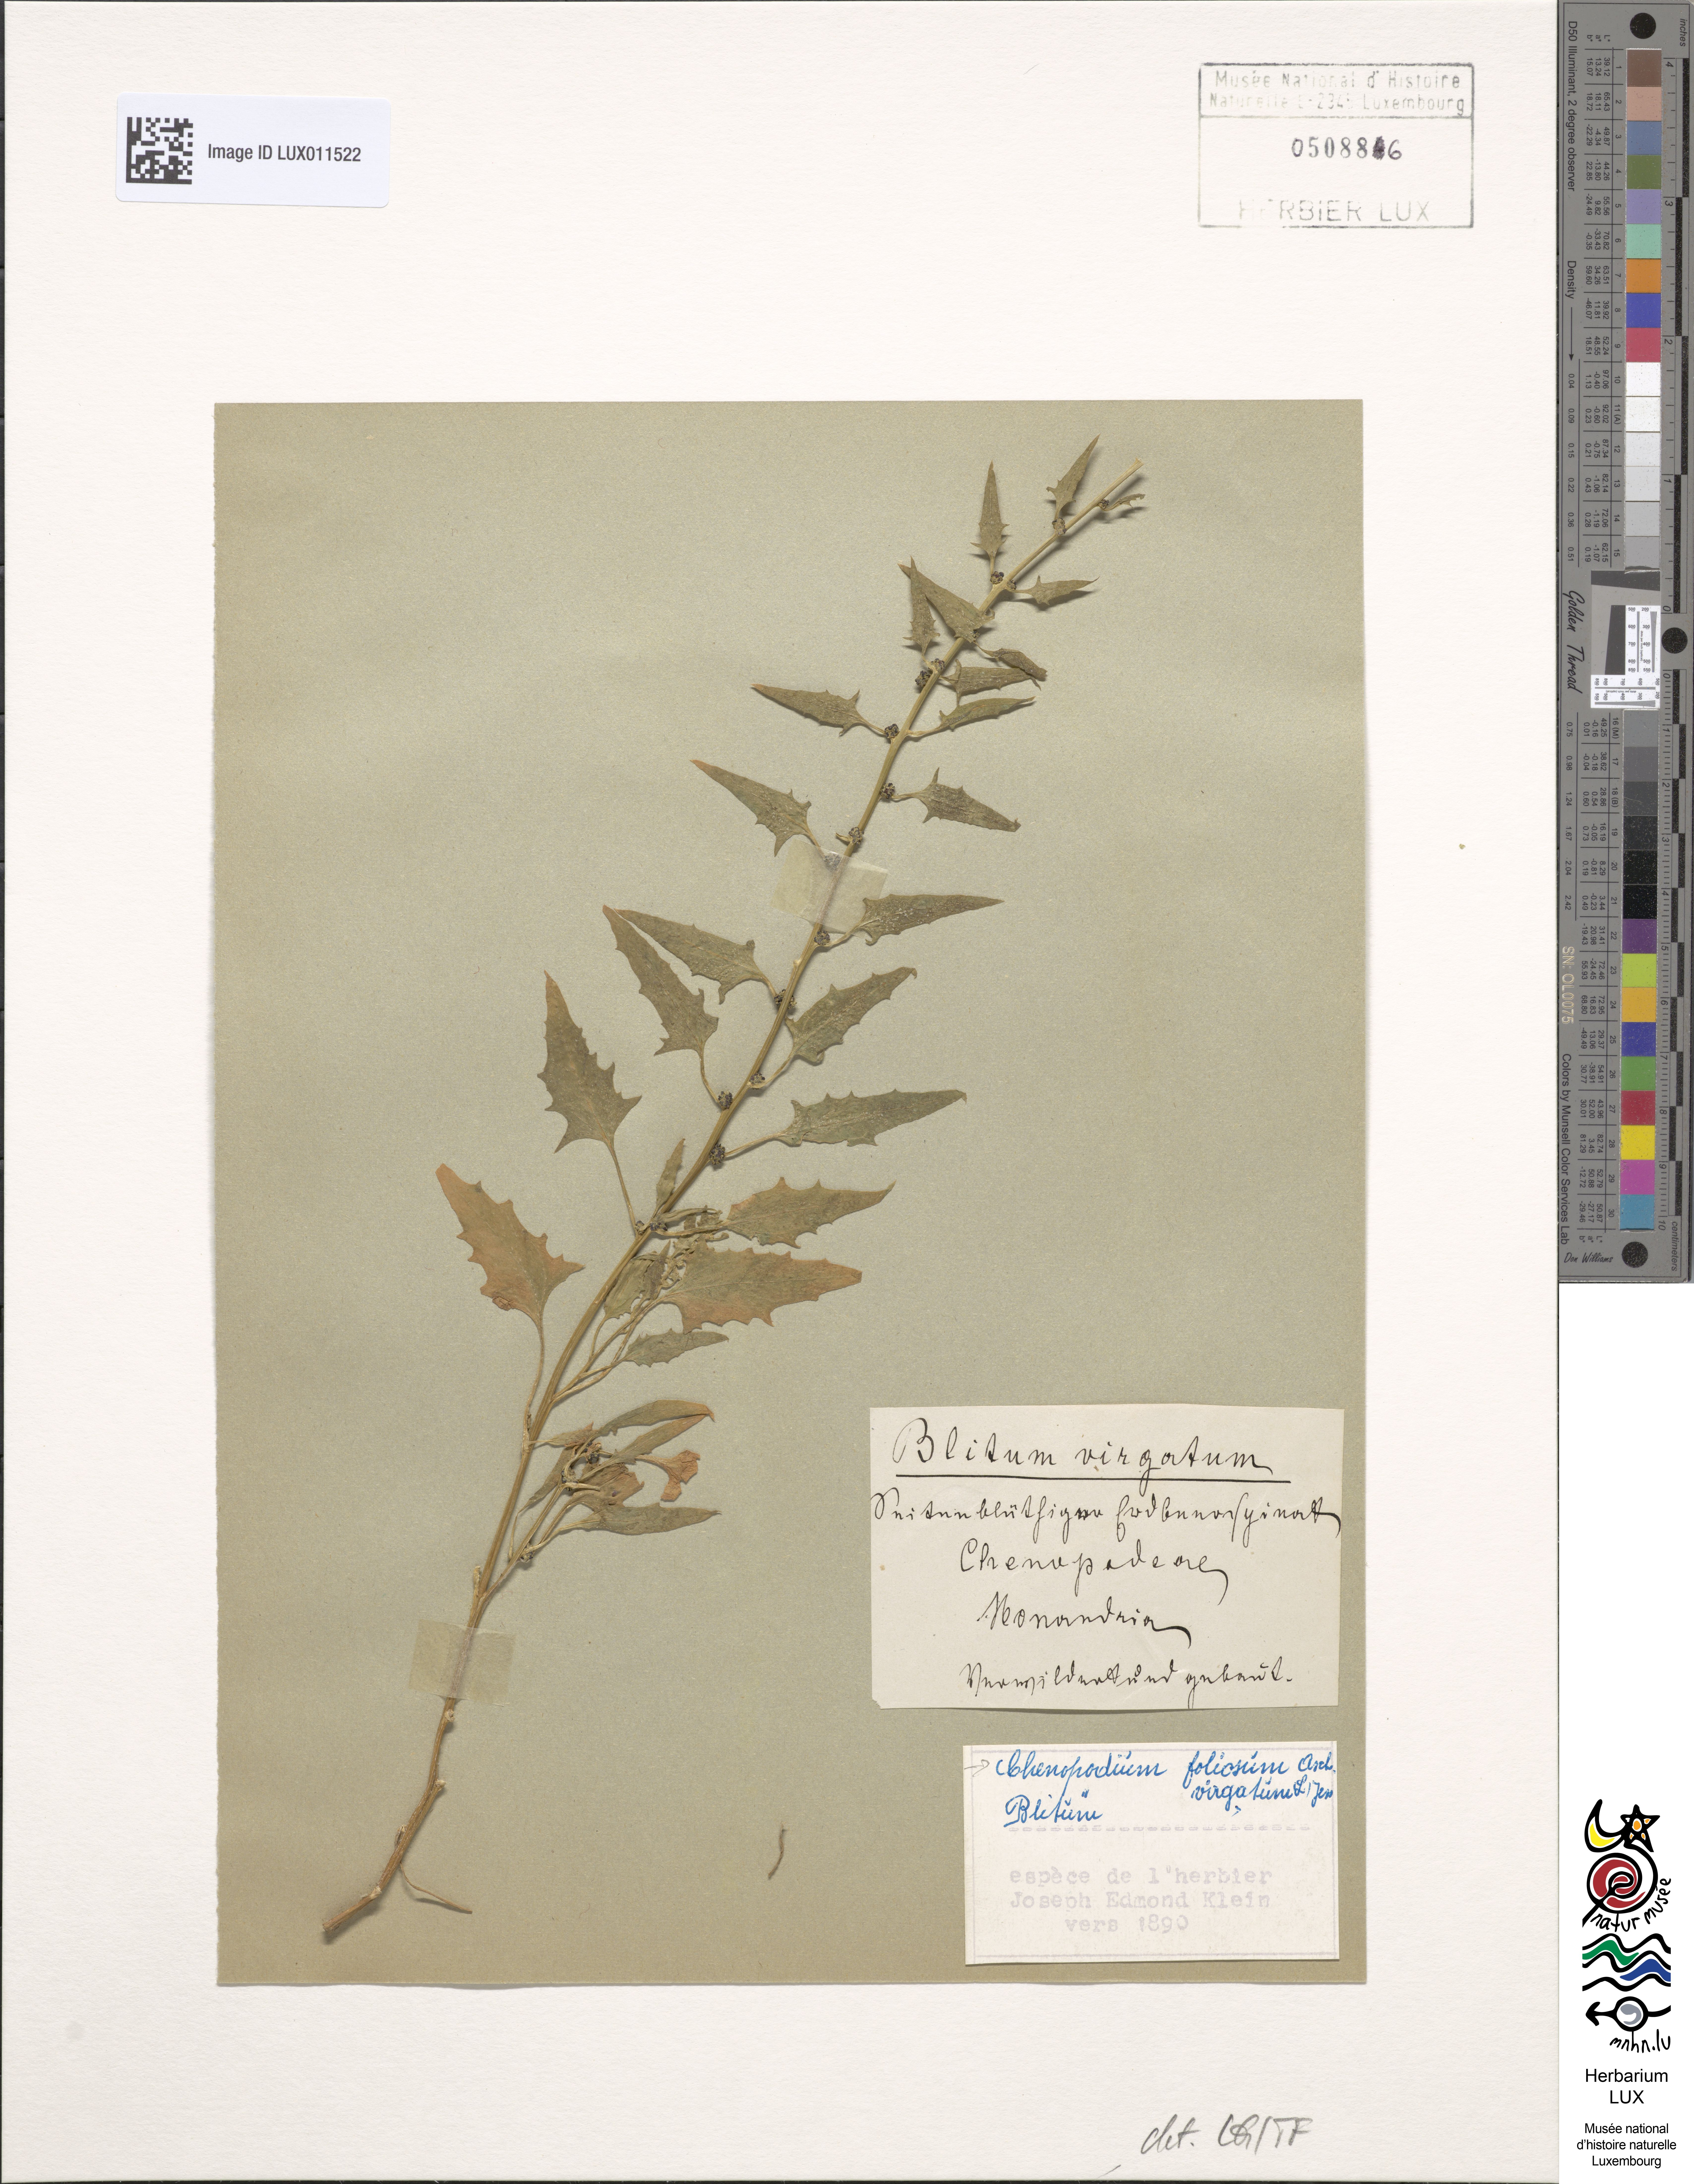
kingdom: Plantae
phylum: Tracheophyta
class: Magnoliopsida
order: Caryophyllales
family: Amaranthaceae
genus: Blitum
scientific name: Blitum virgatum
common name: Strawberry goosefoot
